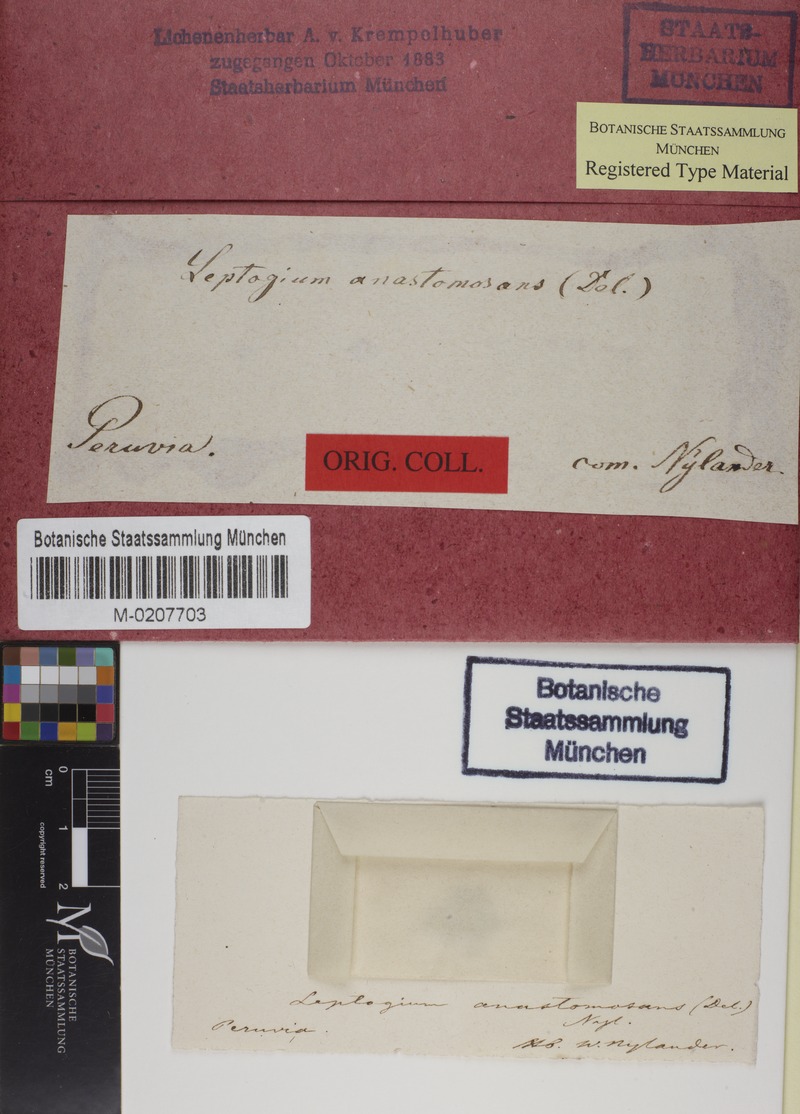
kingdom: Fungi
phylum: Ascomycota
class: Lecanoromycetes
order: Peltigerales
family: Collemataceae
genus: Leptogium
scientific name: Leptogium anastomosans
